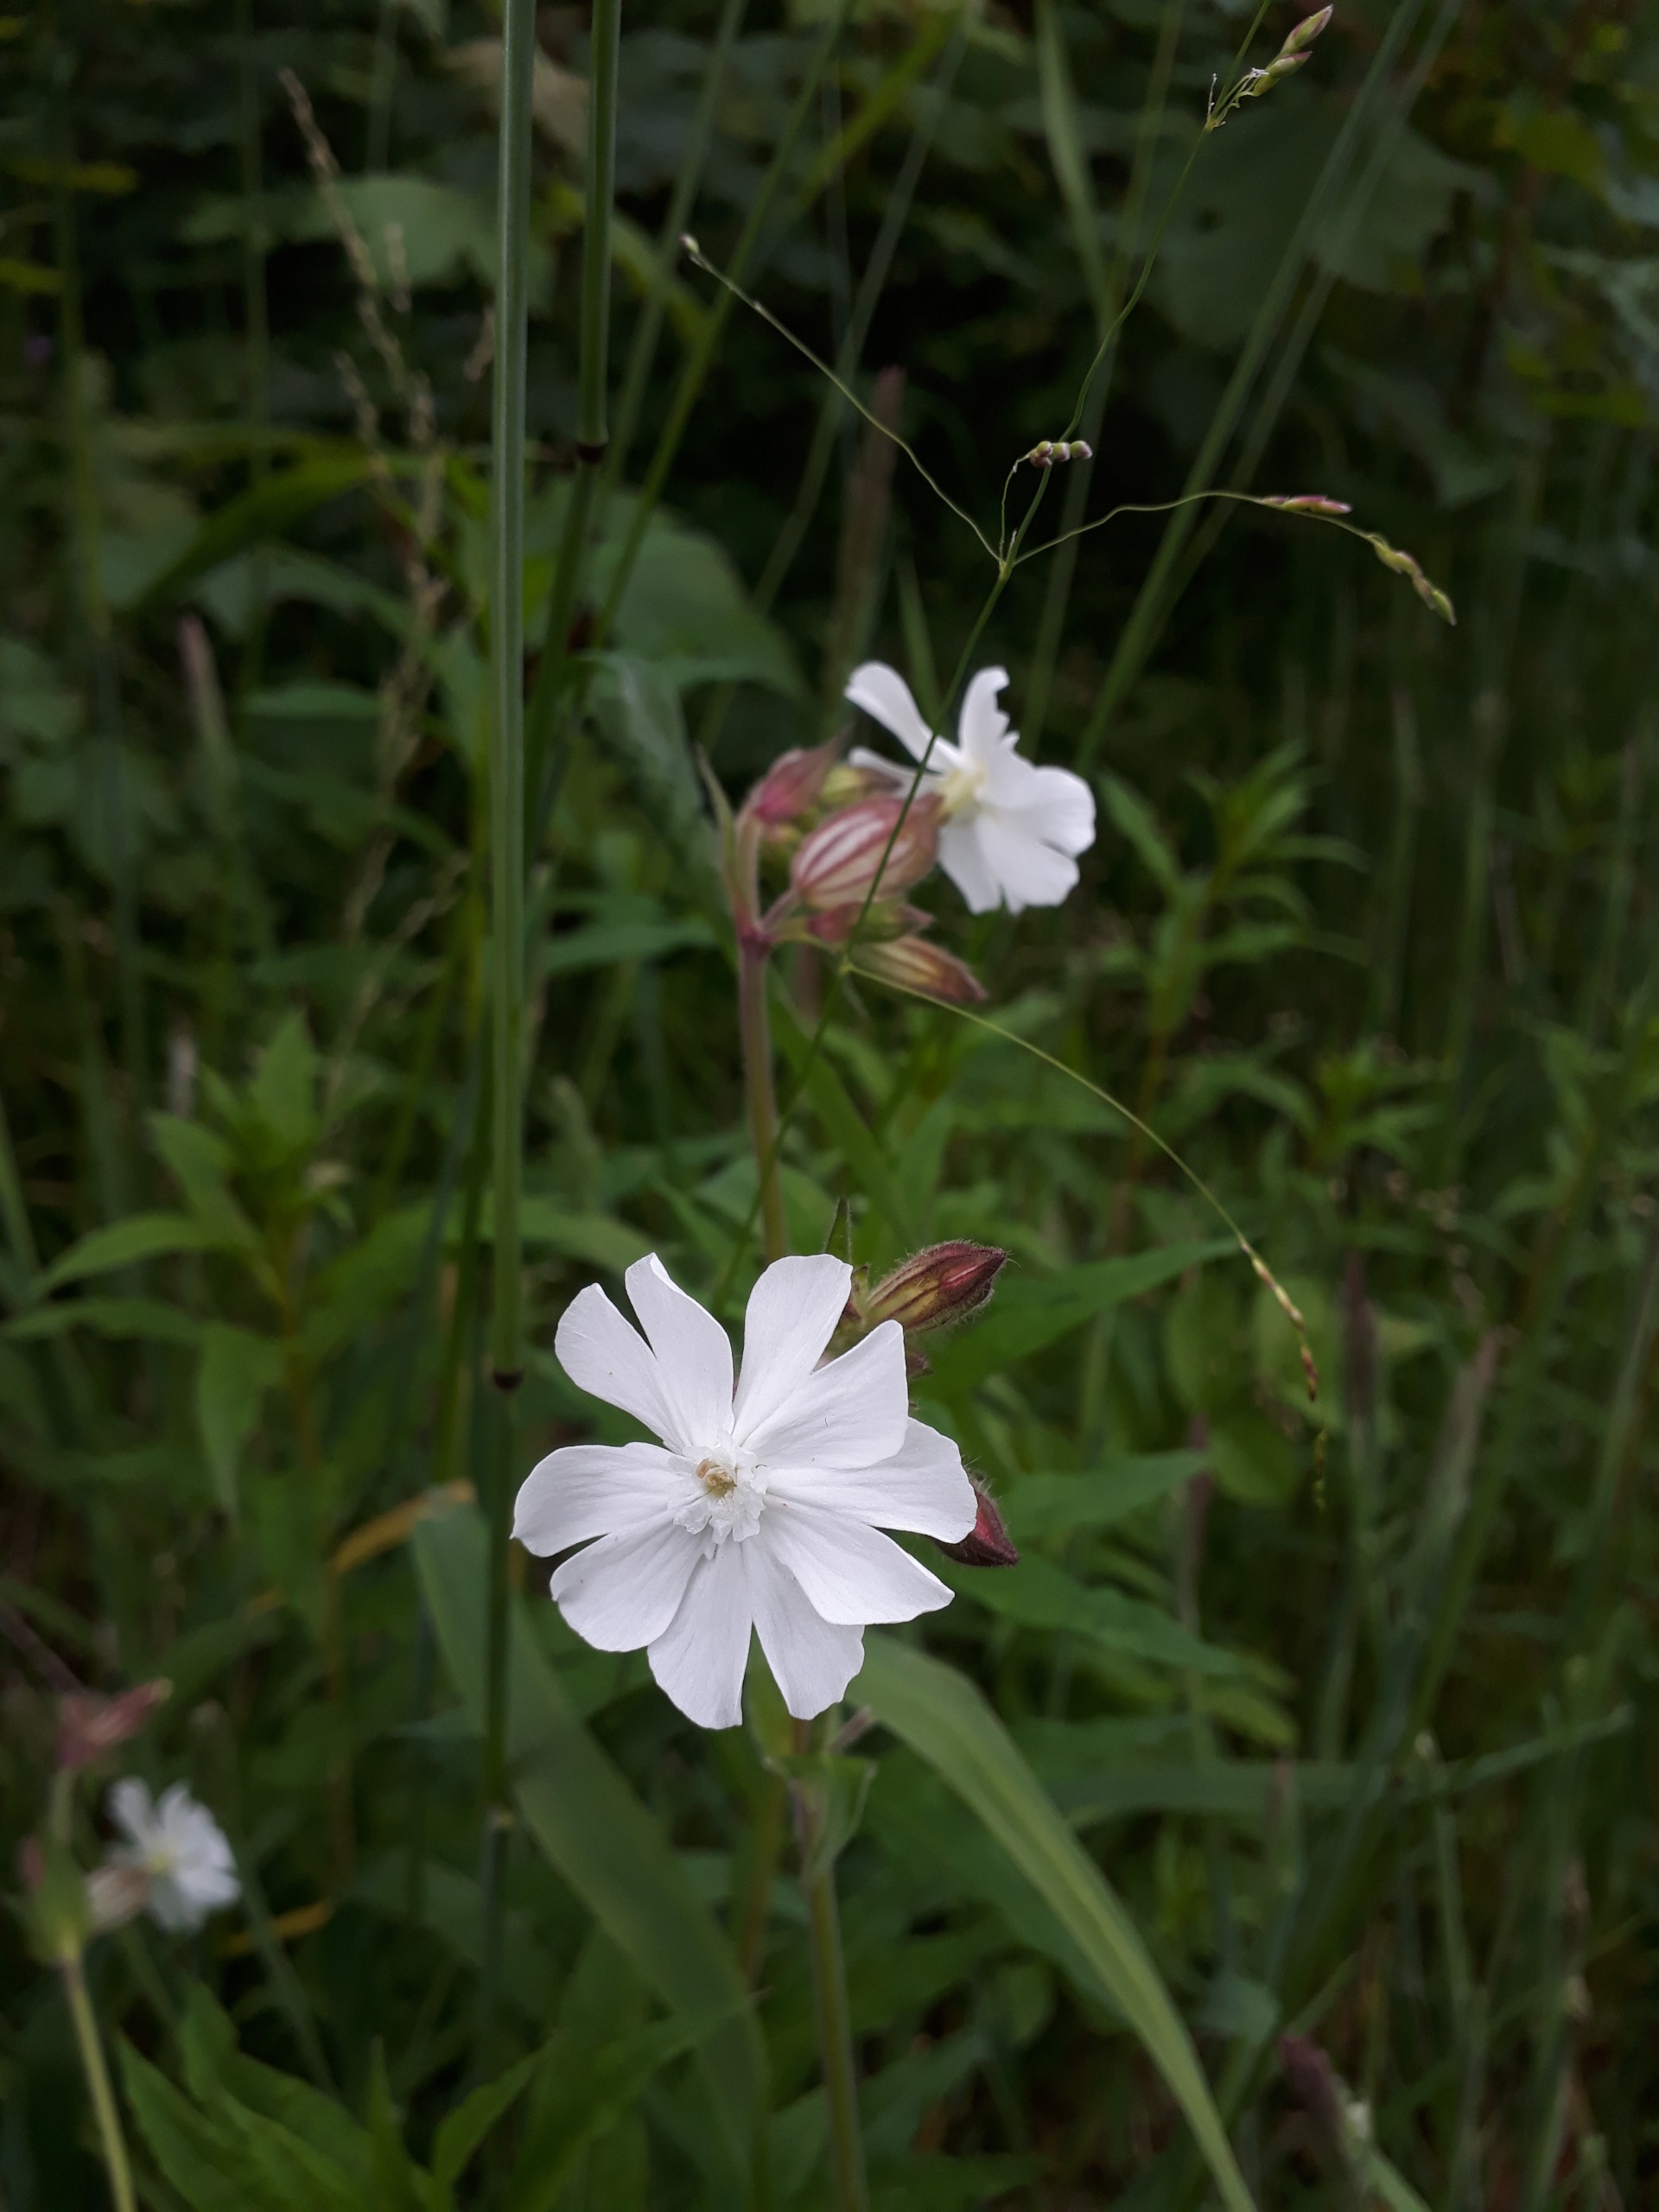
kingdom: Plantae
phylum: Tracheophyta
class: Magnoliopsida
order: Caryophyllales
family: Caryophyllaceae
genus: Silene
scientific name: Silene latifolia
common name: Aftenpragtstjerne
